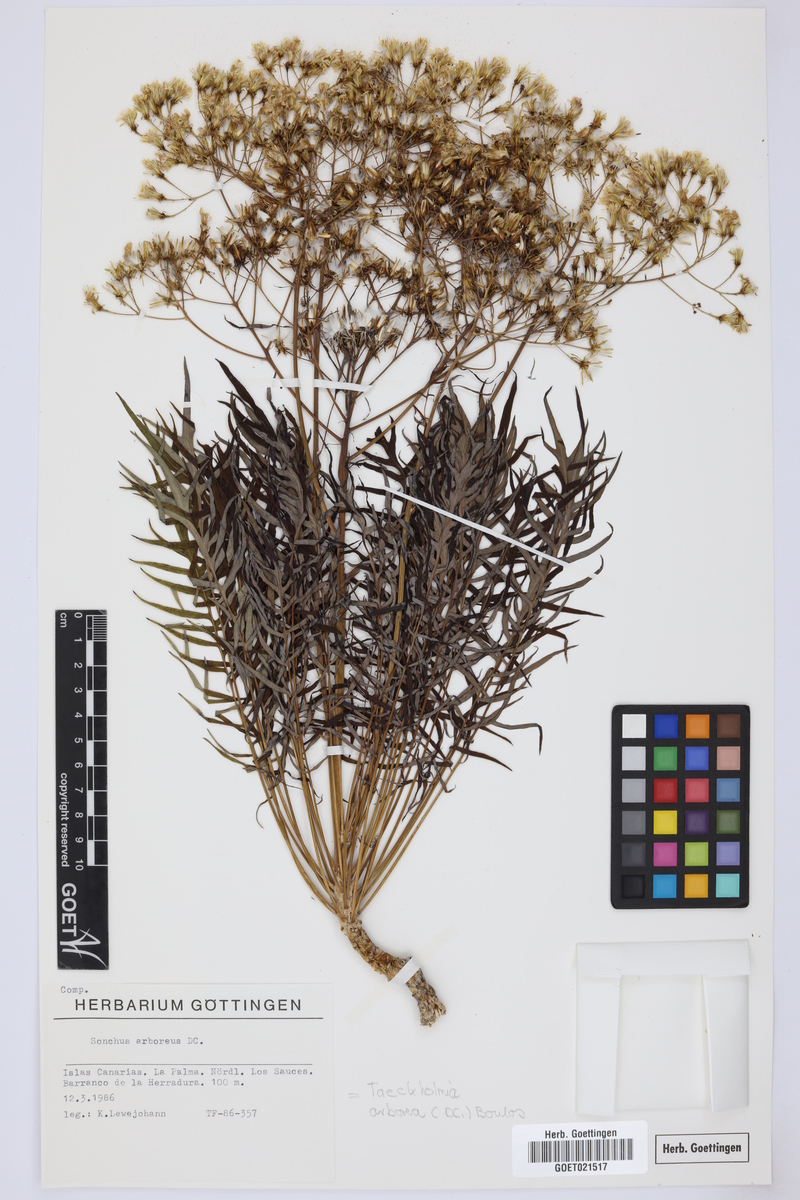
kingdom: Plantae
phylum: Tracheophyta
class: Magnoliopsida
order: Asterales
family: Asteraceae
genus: Sonchus
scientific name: Sonchus arboreus
